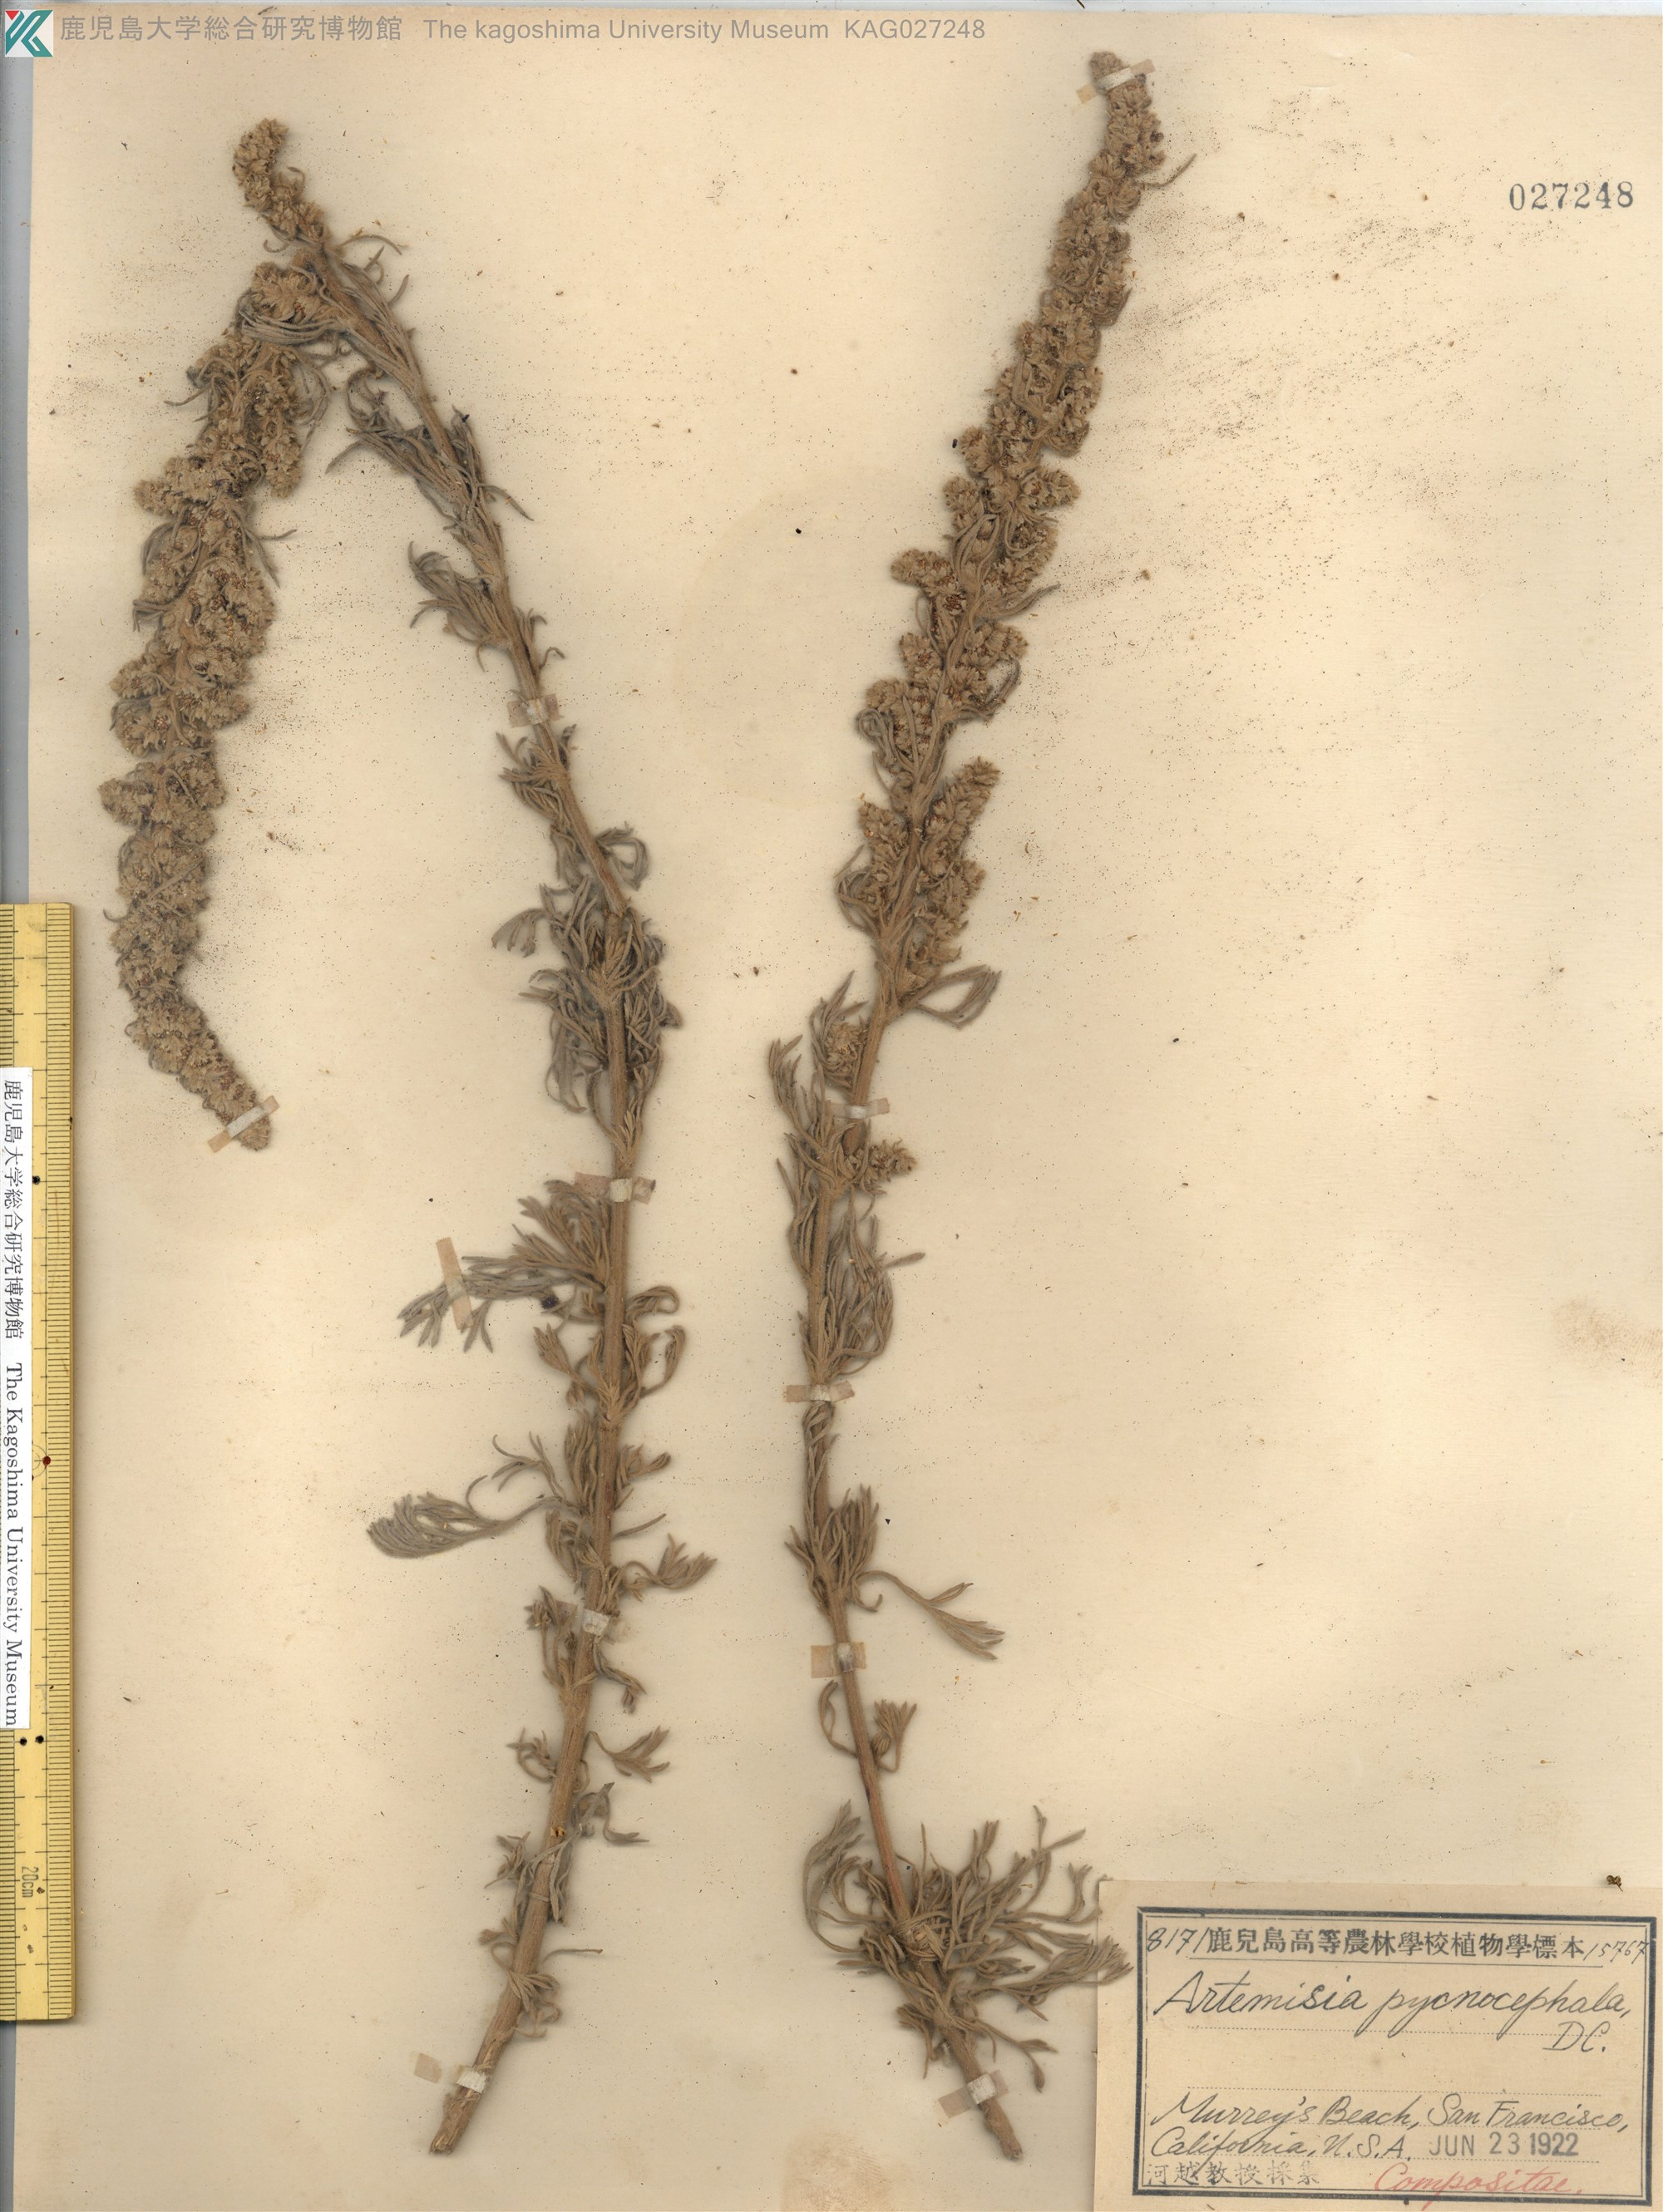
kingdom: Plantae
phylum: Tracheophyta
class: Magnoliopsida
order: Asterales
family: Asteraceae
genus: Artemisia
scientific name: Artemisia pycnocephala
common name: Coastal sagewort
